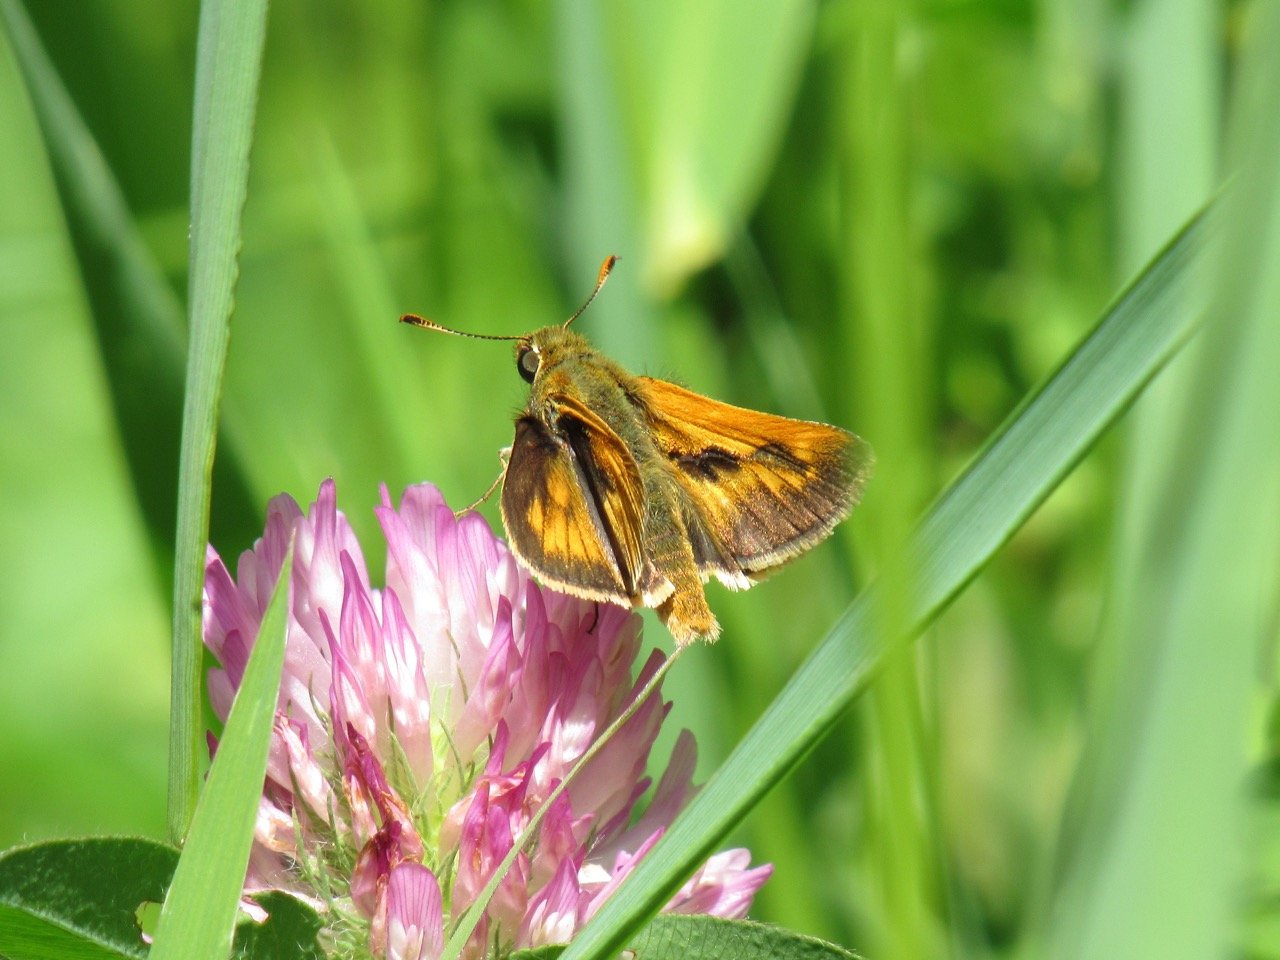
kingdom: Animalia
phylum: Arthropoda
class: Insecta
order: Lepidoptera
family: Hesperiidae
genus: Polites
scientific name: Polites
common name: Long Dash Skipper
